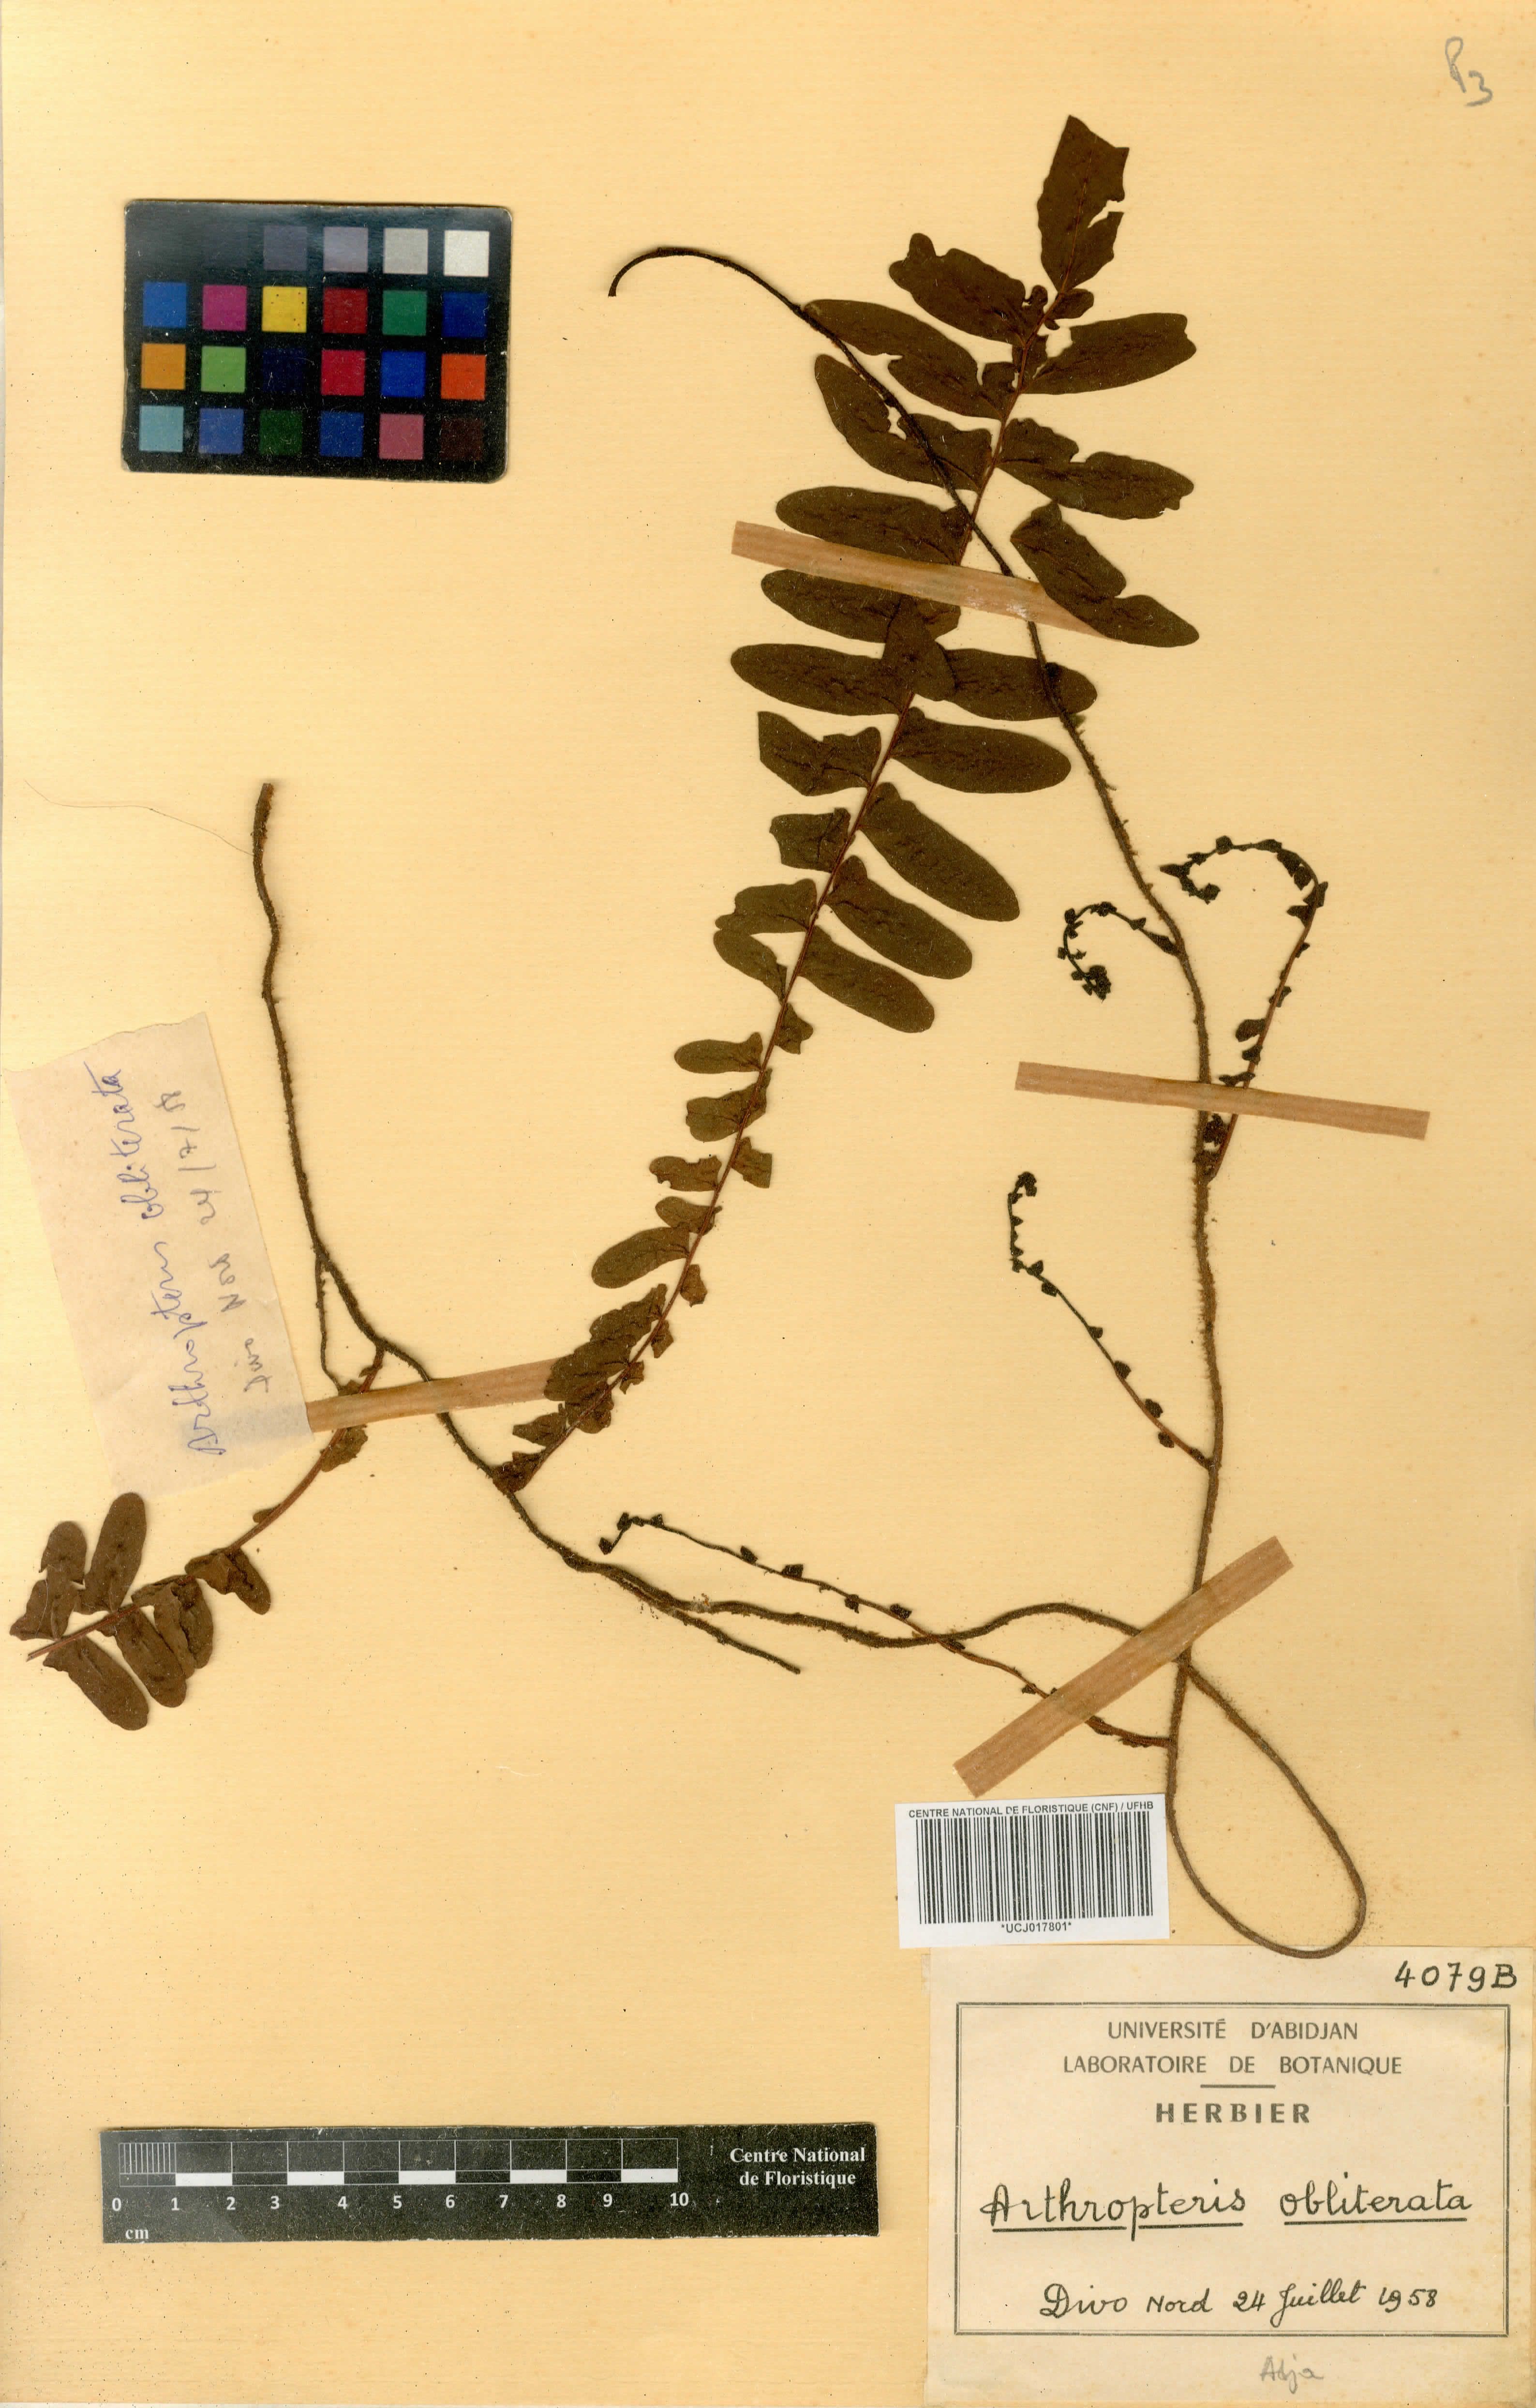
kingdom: Plantae
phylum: Tracheophyta
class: Polypodiopsida
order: Polypodiales
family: Nephrolepidaceae
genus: Nephrolepis
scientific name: Nephrolepis obliterata
